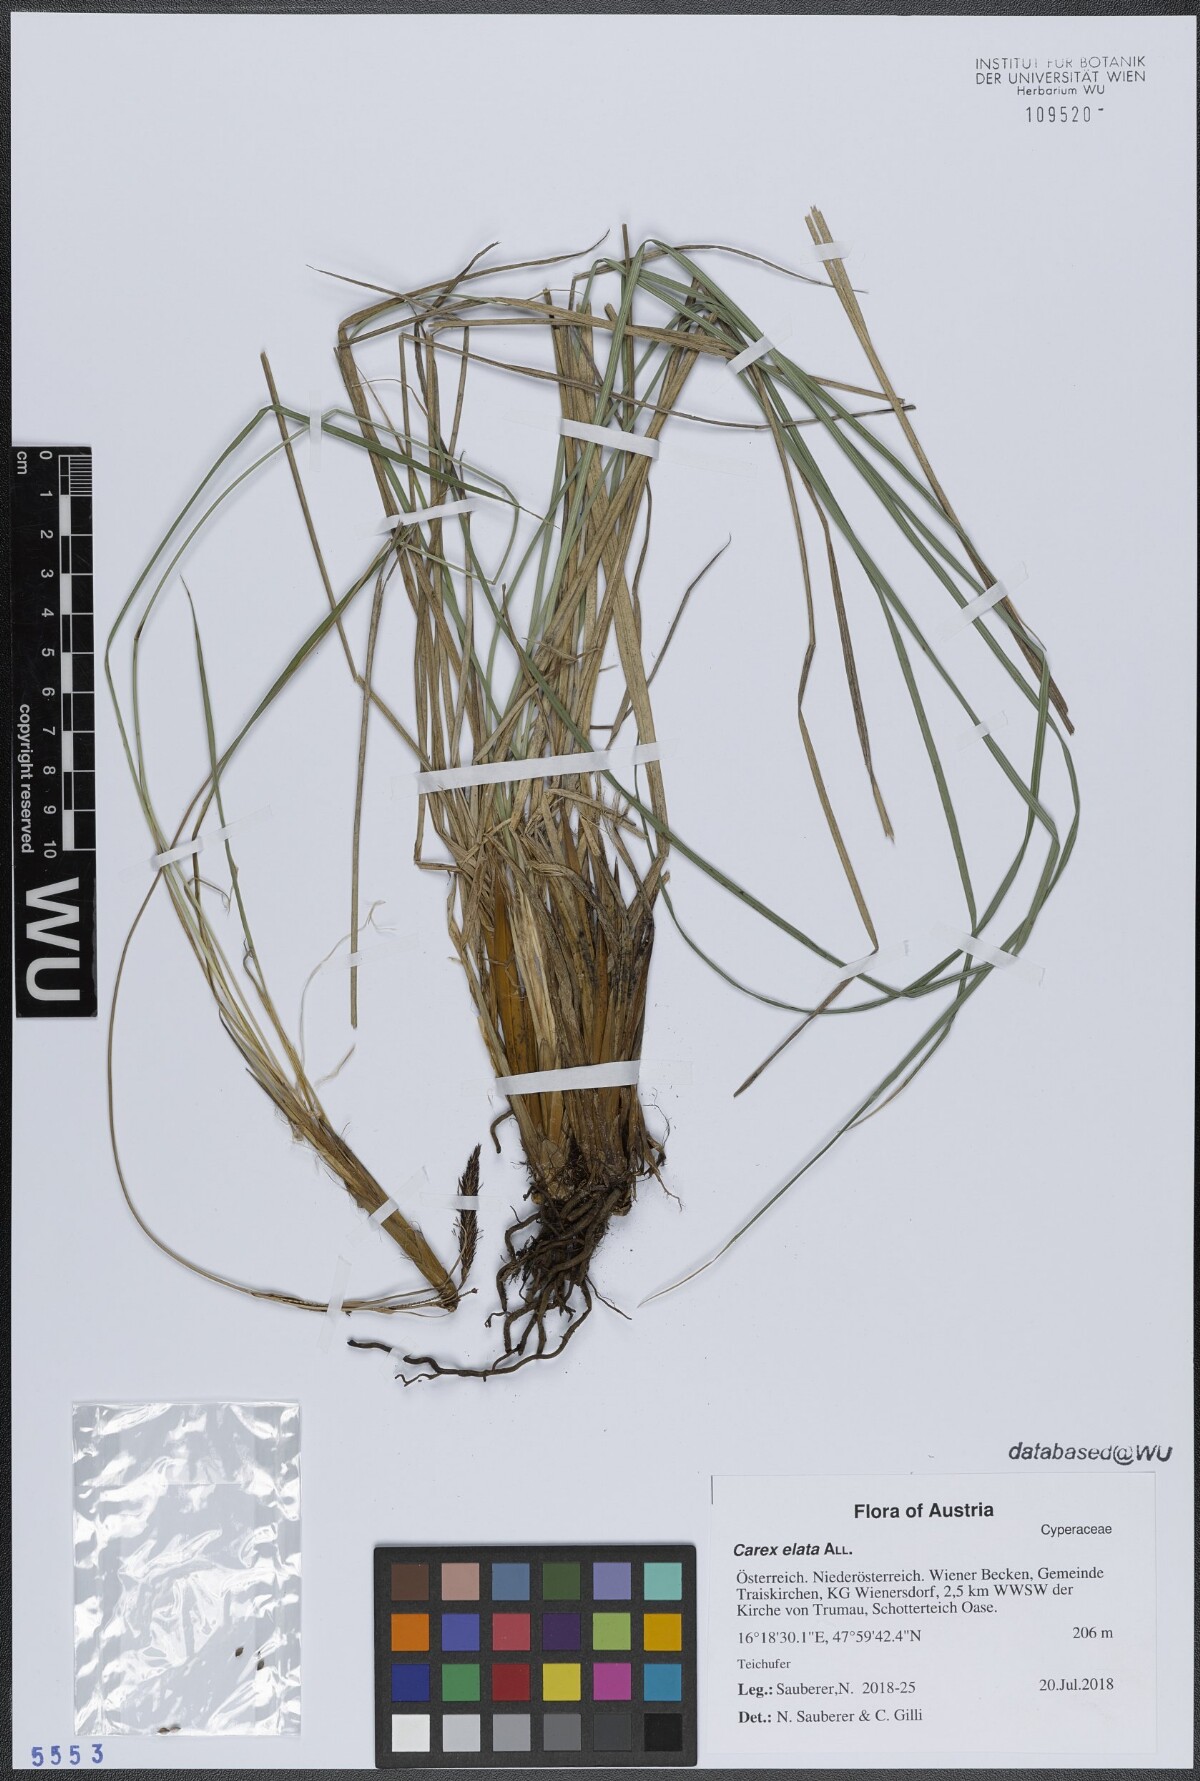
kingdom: Plantae
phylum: Tracheophyta
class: Liliopsida
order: Poales
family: Cyperaceae
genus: Carex
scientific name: Carex elata
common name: Tufted sedge
